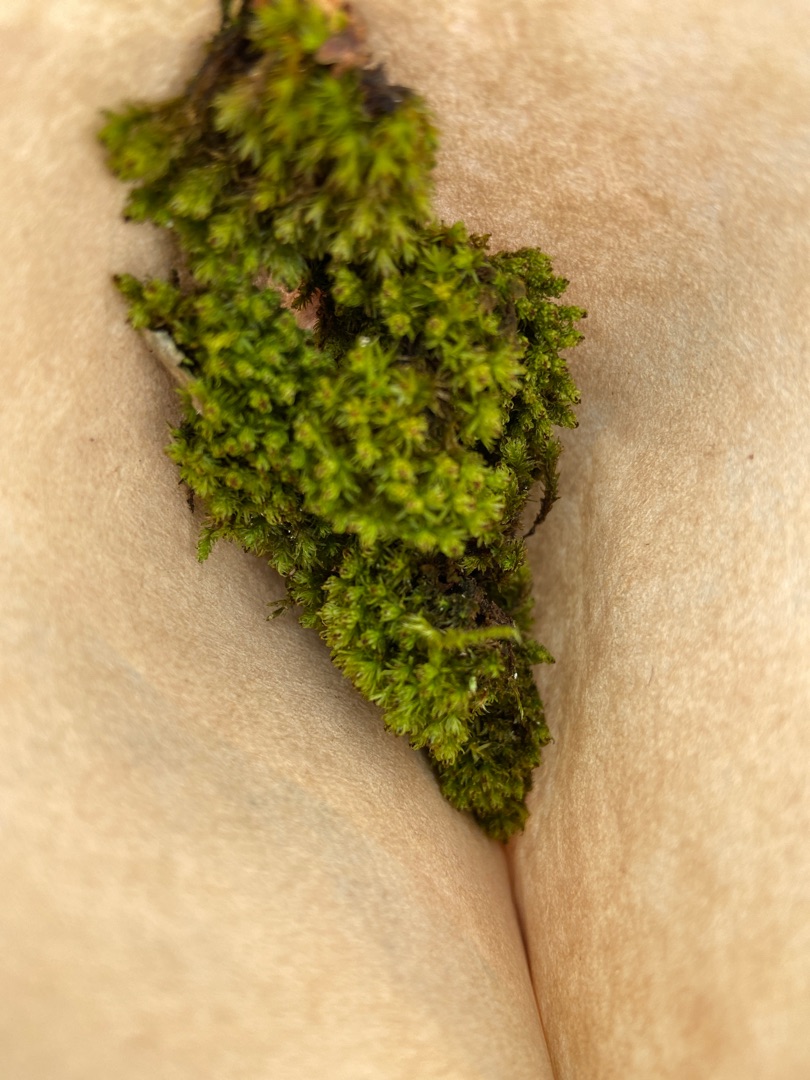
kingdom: Plantae
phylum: Bryophyta
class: Bryopsida
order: Orthotrichales
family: Orthotrichaceae
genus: Plenogemma
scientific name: Plenogemma phyllantha
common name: Stor låddenhætte
